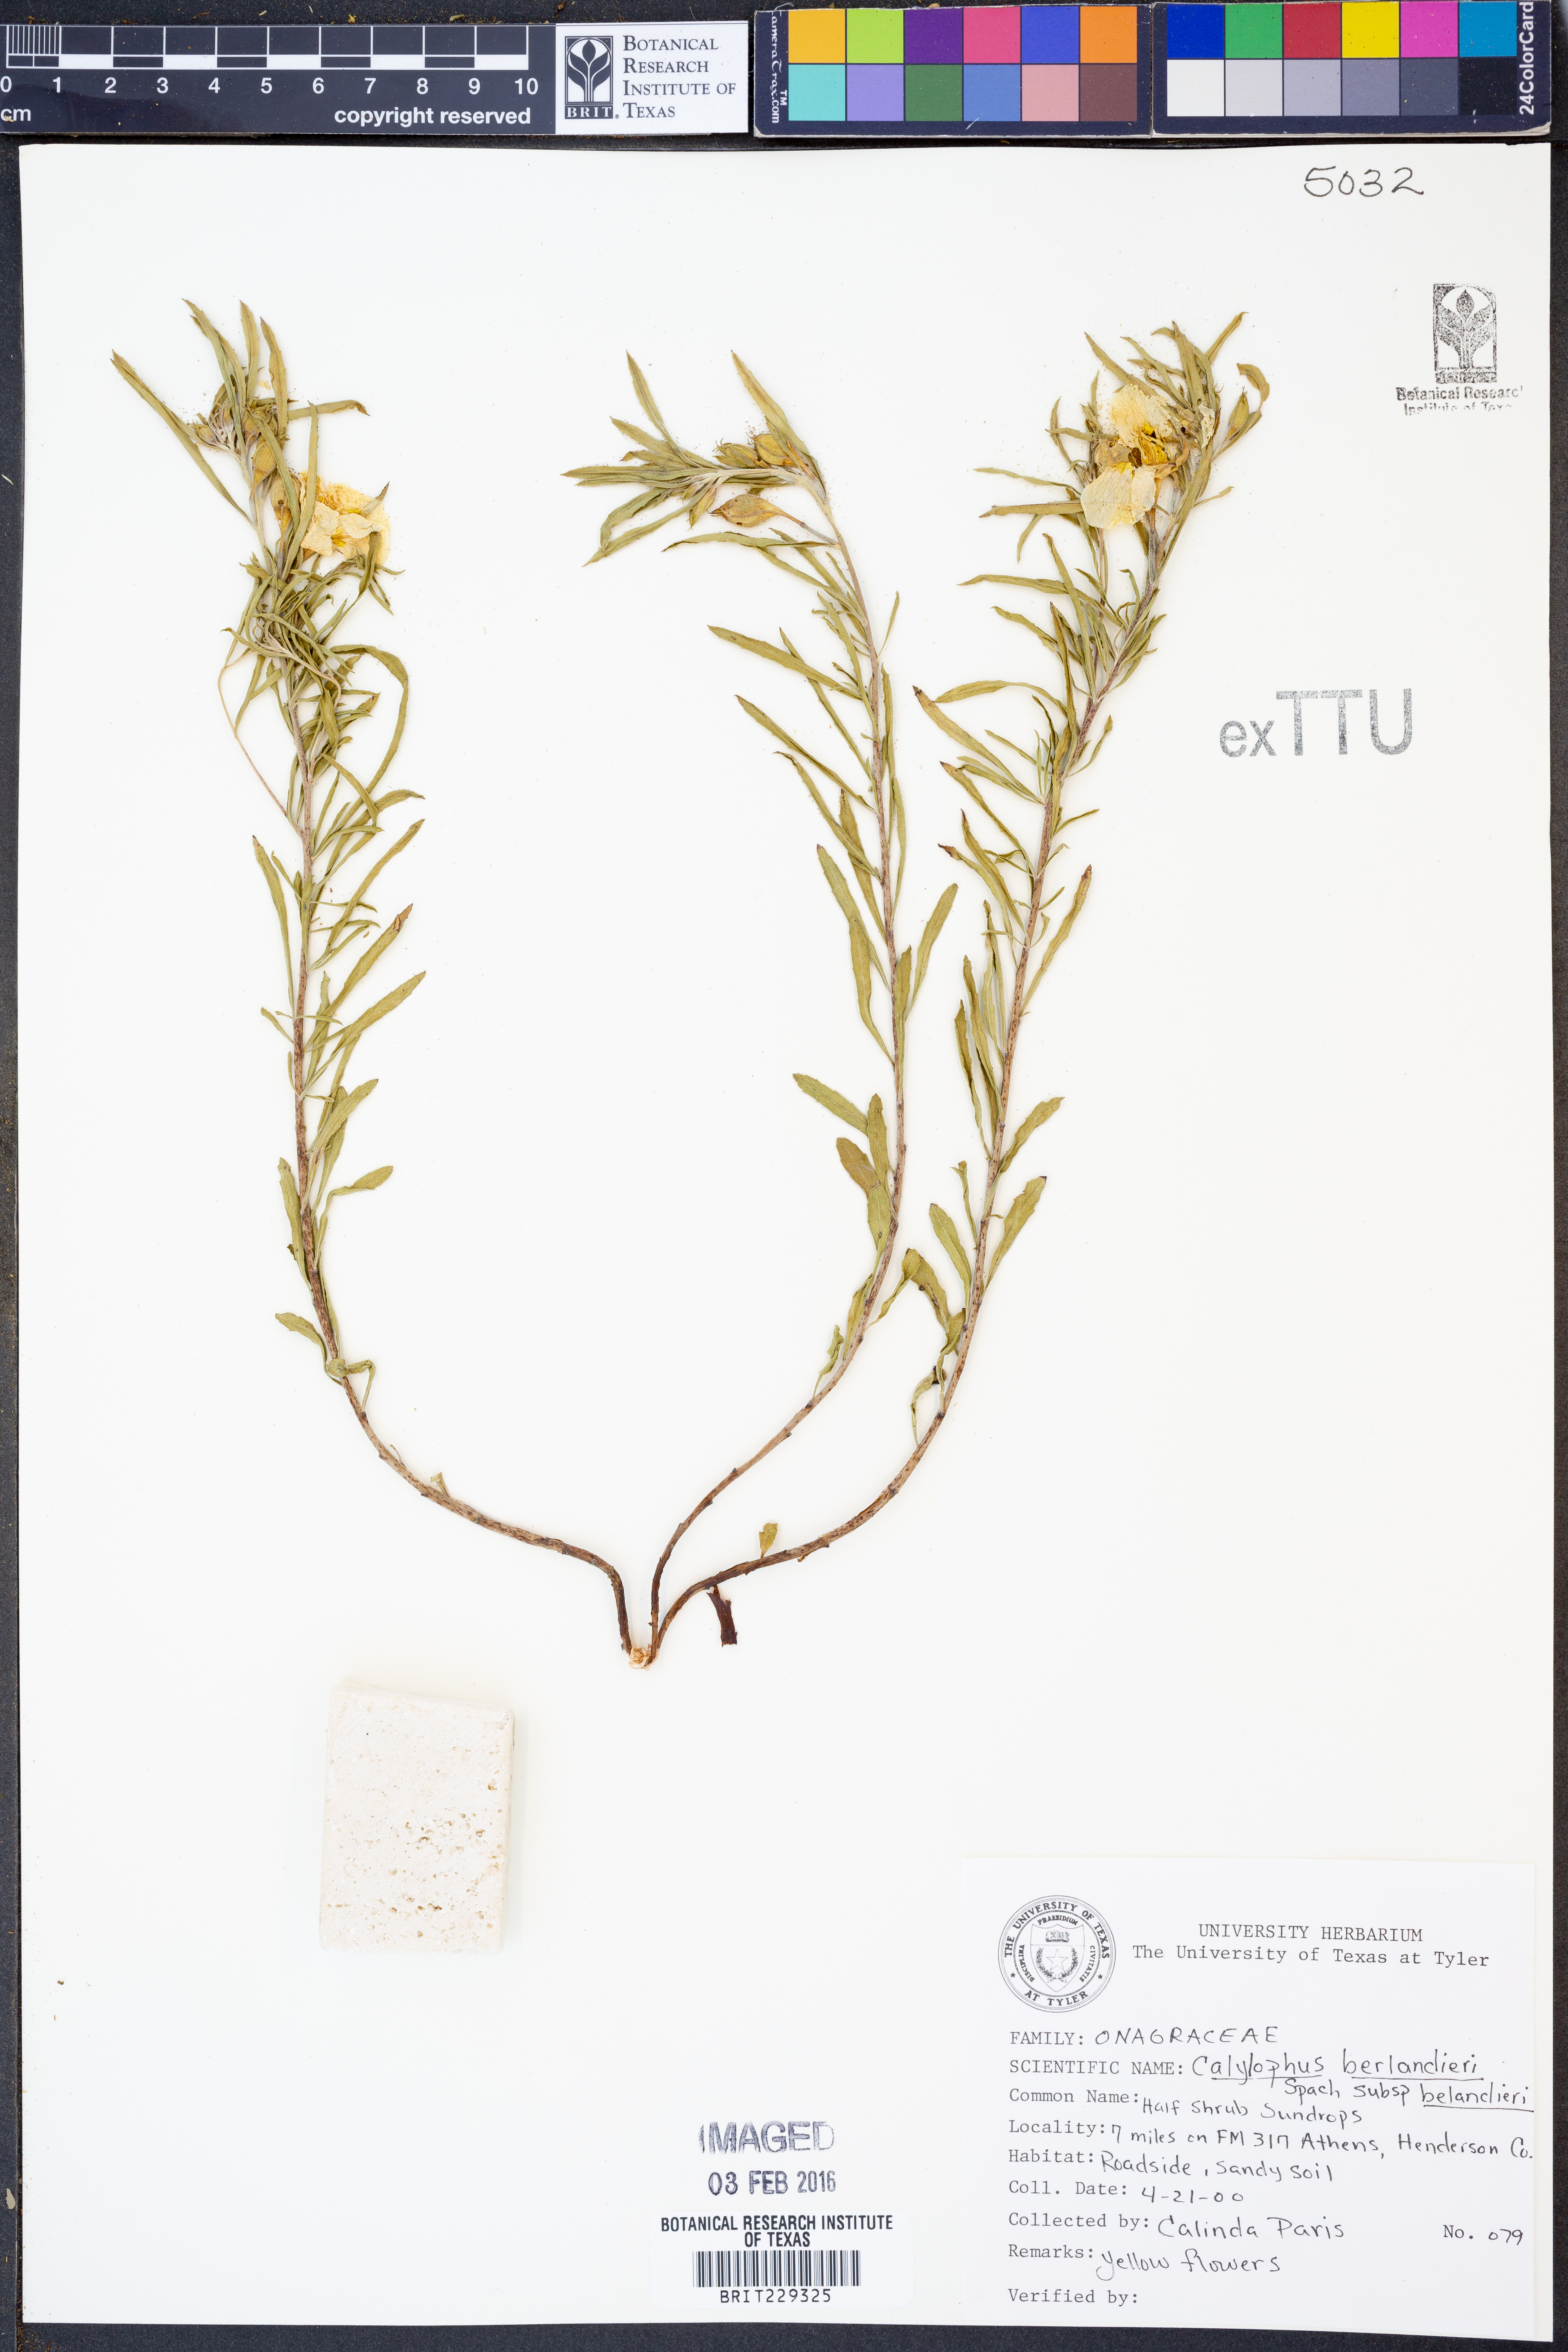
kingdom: Plantae
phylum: Tracheophyta
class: Magnoliopsida
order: Myrtales
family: Onagraceae
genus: Oenothera
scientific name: Oenothera capillifolia
